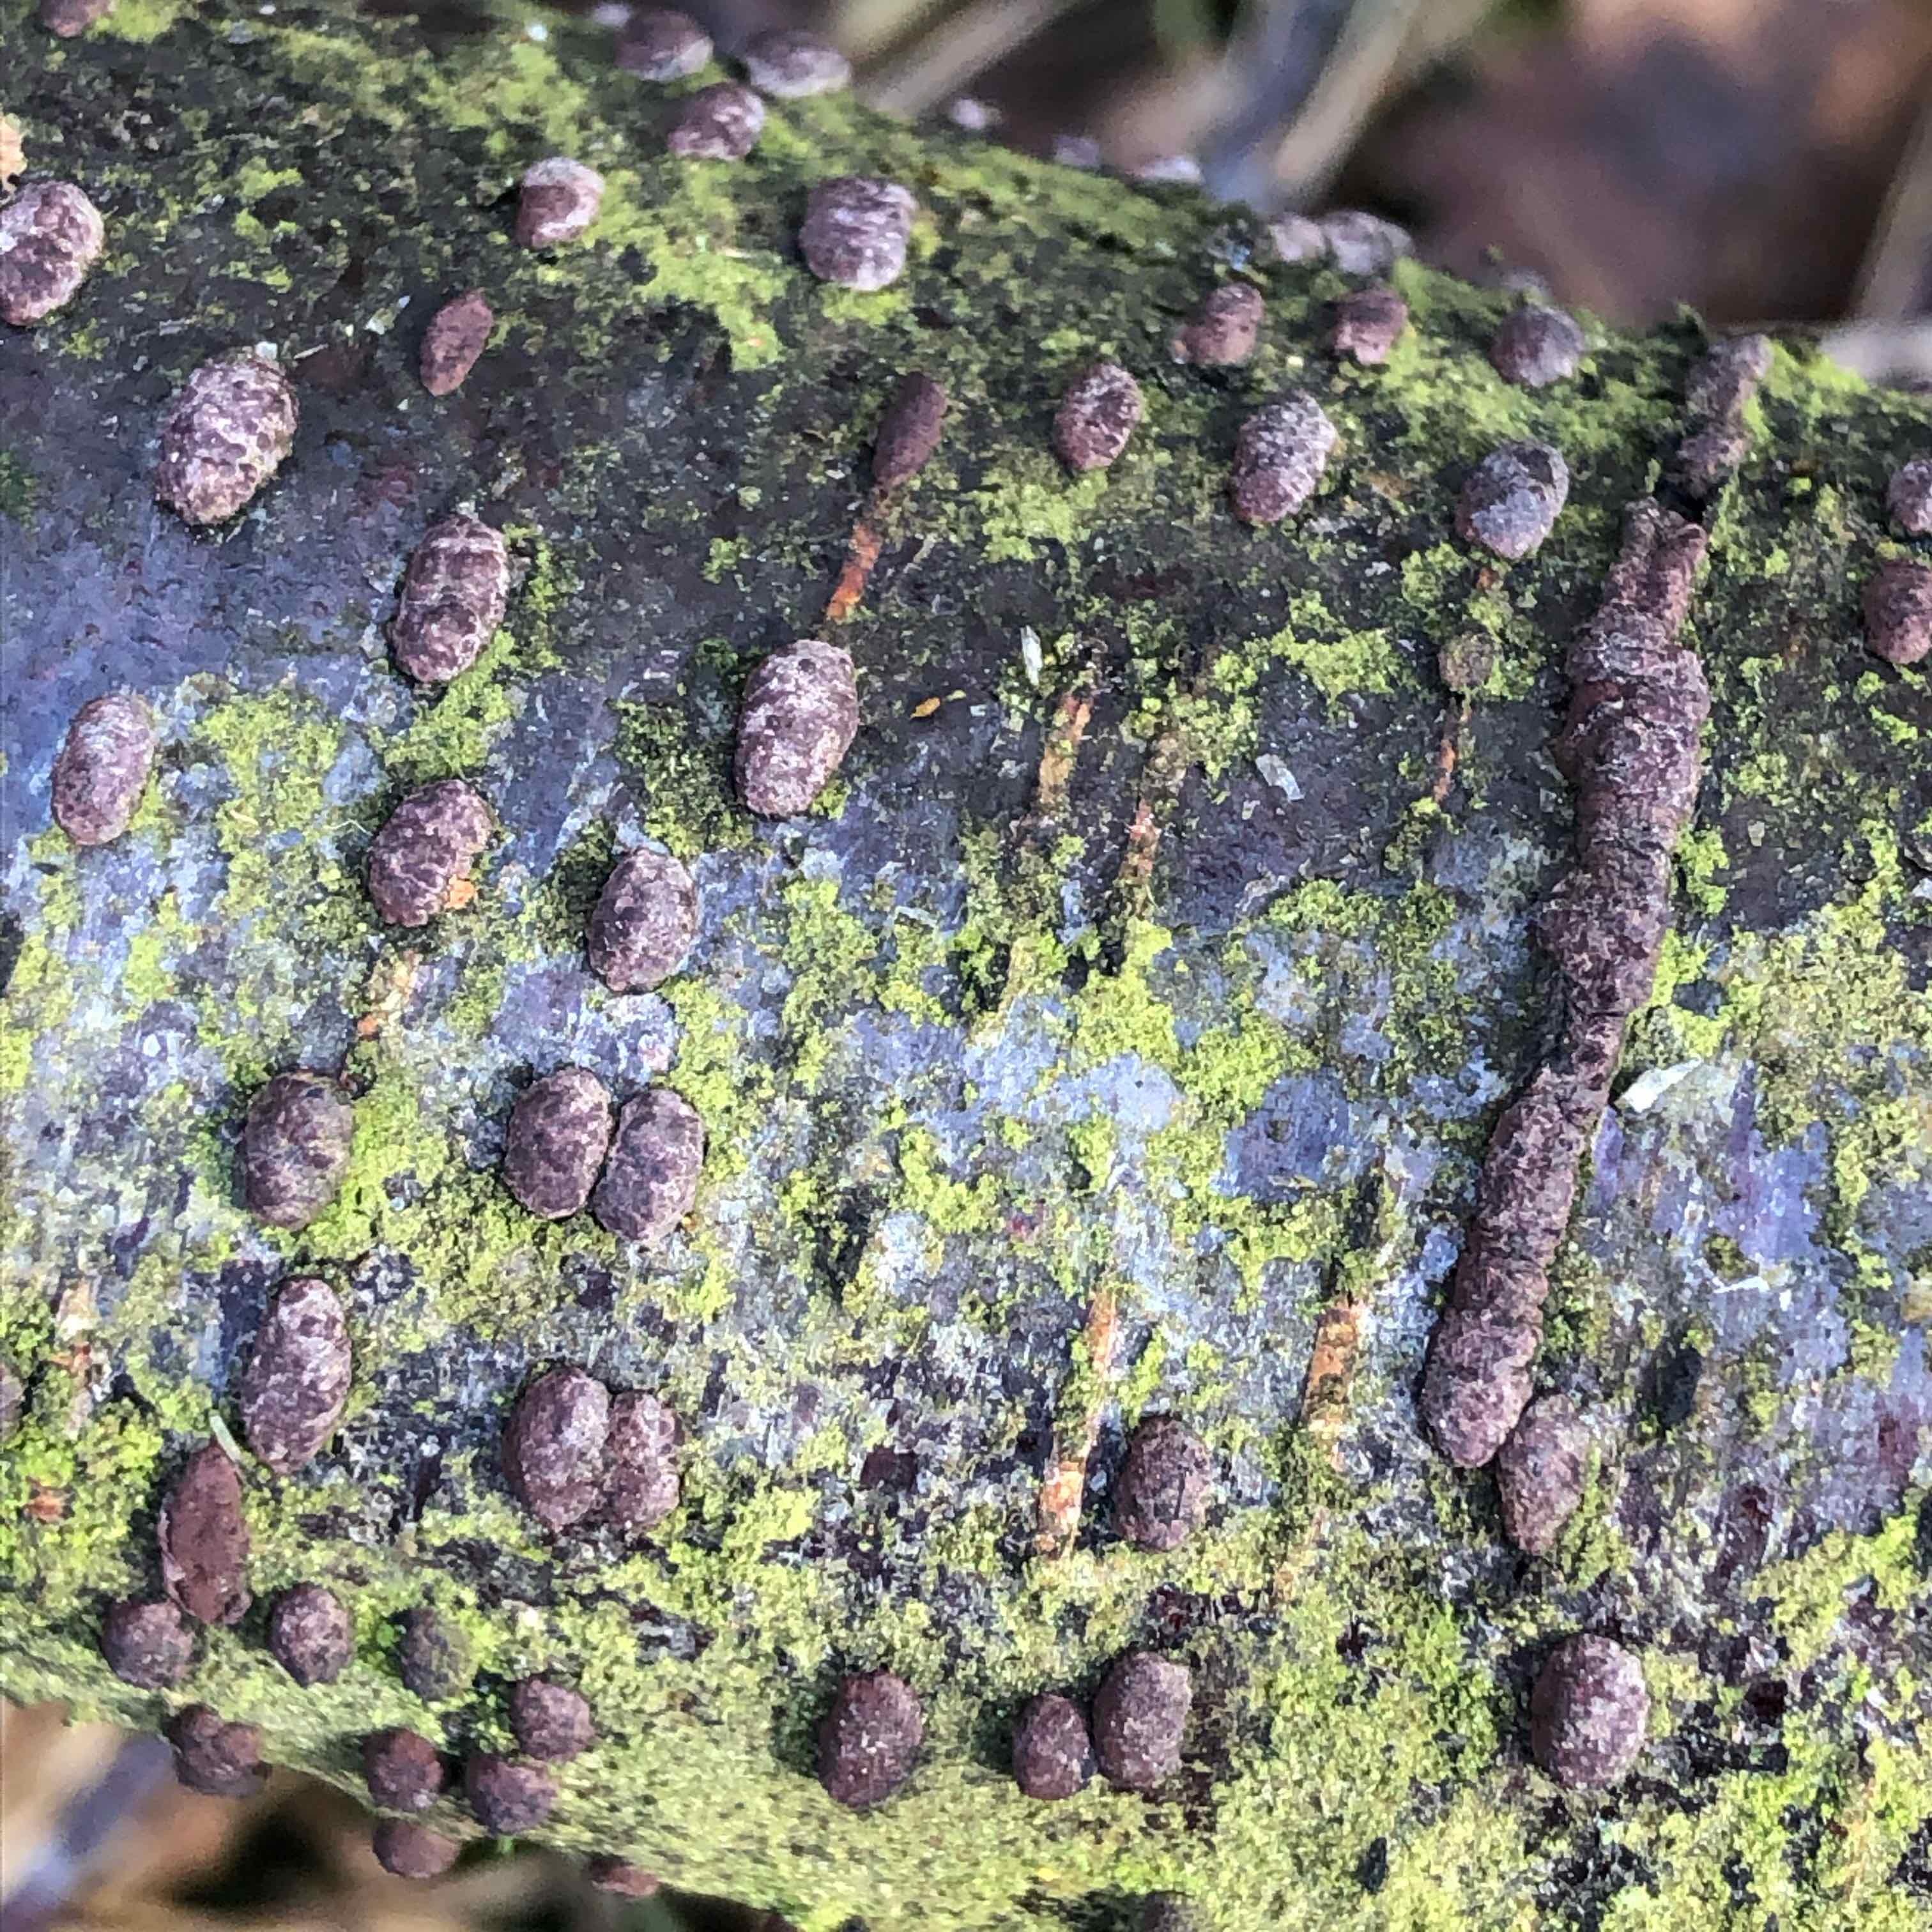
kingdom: Fungi
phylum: Ascomycota
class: Sordariomycetes
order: Xylariales
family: Hypoxylaceae
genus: Jackrogersella
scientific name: Jackrogersella multiformis
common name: foranderlig kulbær
